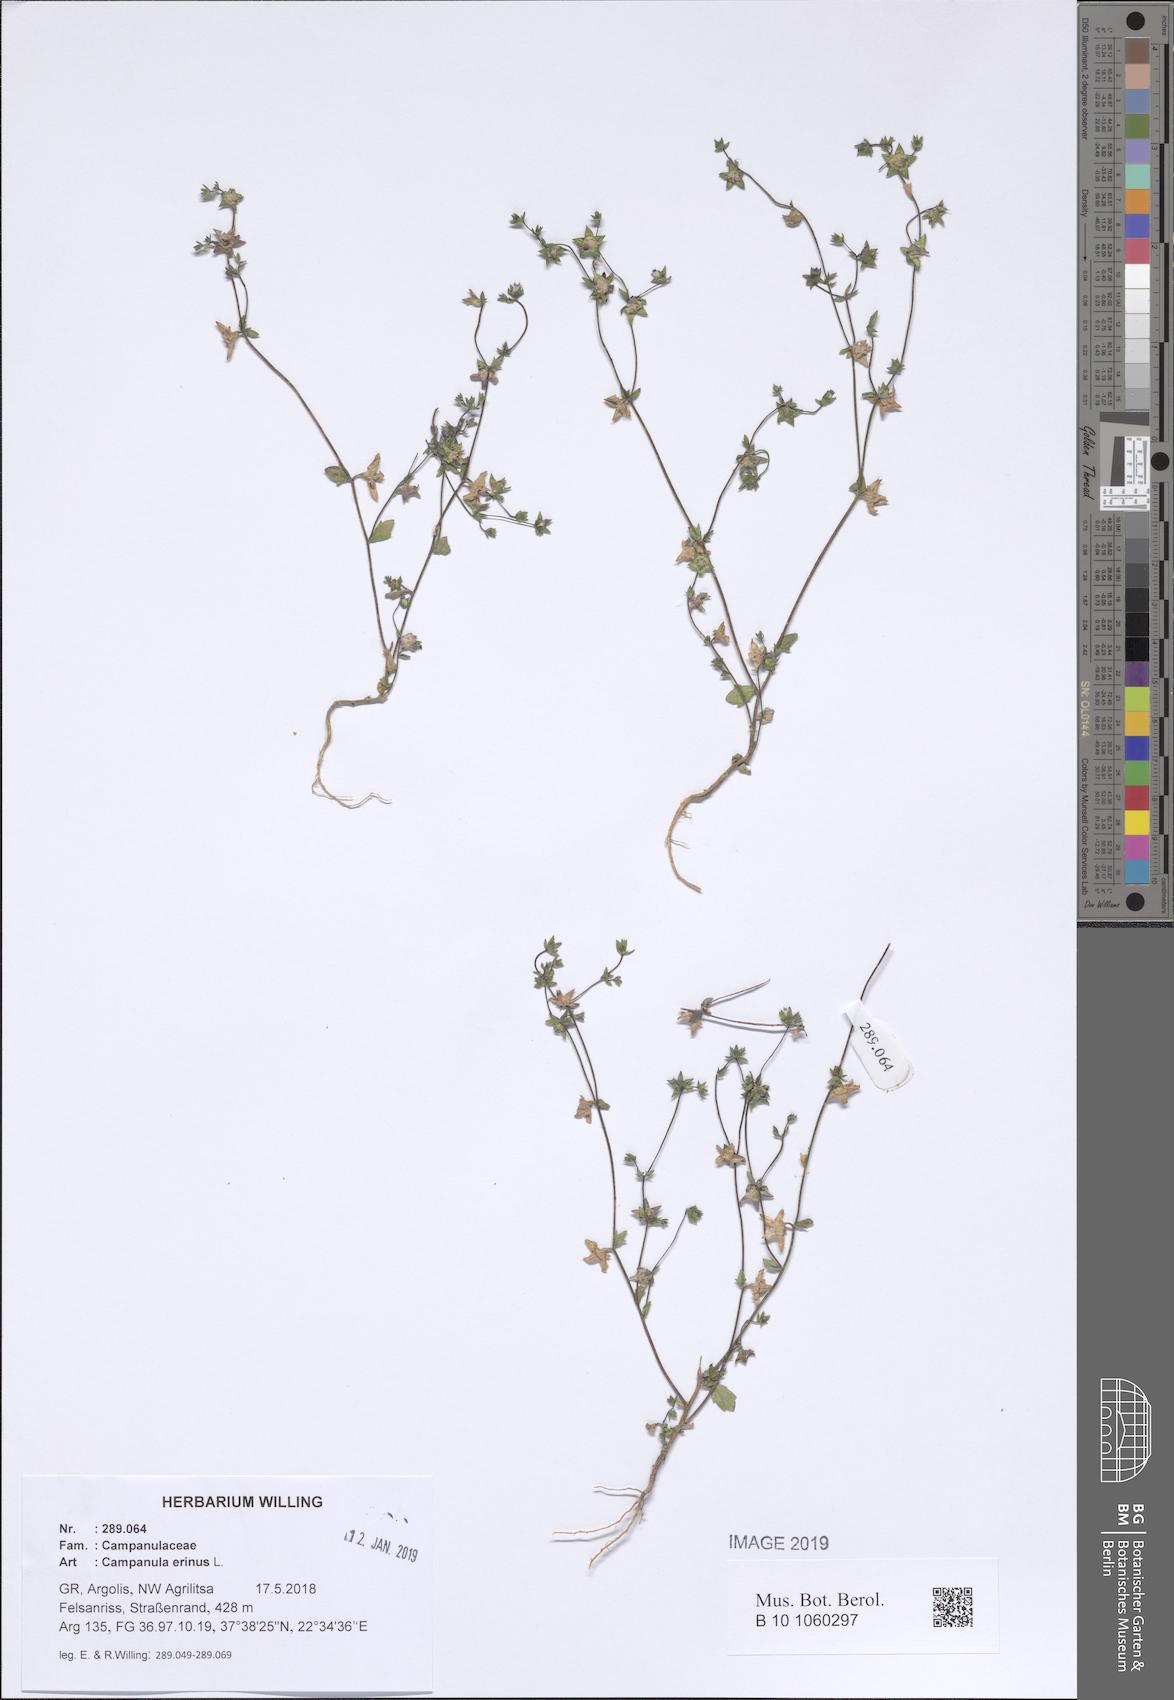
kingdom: Plantae
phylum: Tracheophyta
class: Magnoliopsida
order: Asterales
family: Campanulaceae
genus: Campanula
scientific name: Campanula erinus
